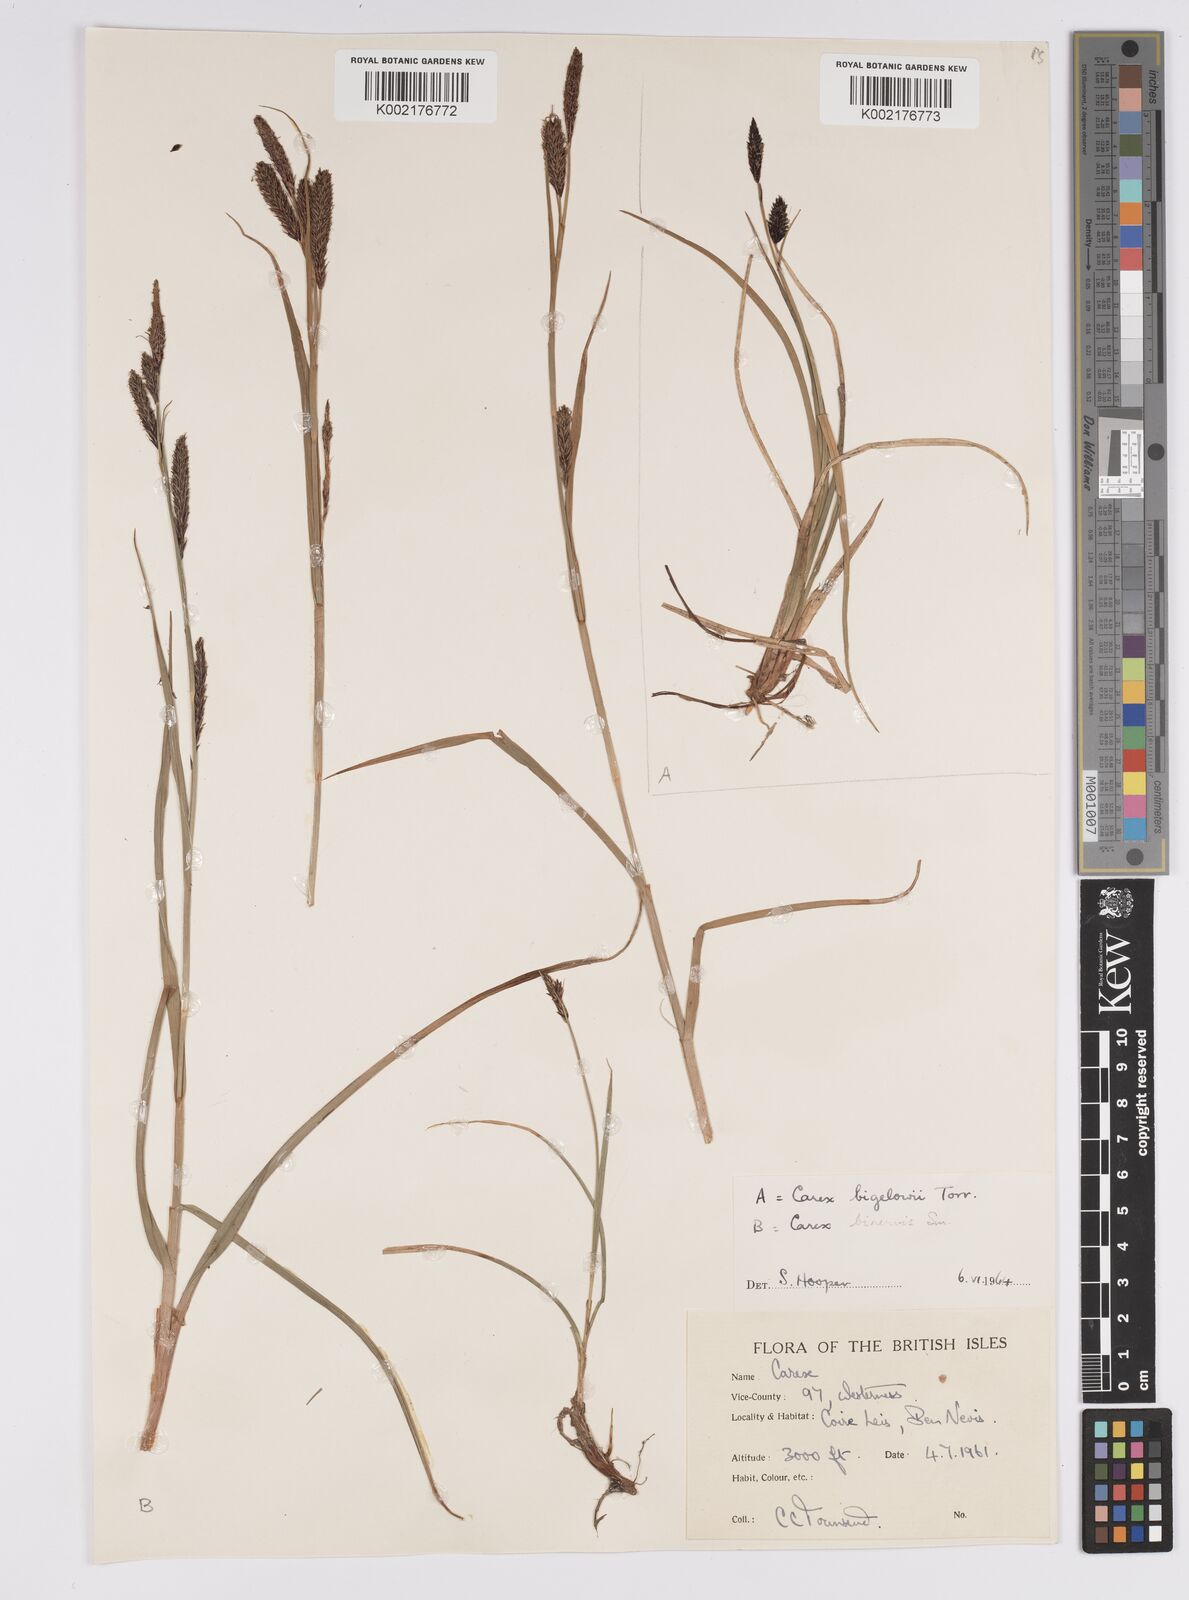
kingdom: Plantae
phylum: Tracheophyta
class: Liliopsida
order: Poales
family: Cyperaceae
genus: Carex
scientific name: Carex binervis
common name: Green-ribbed sedge
